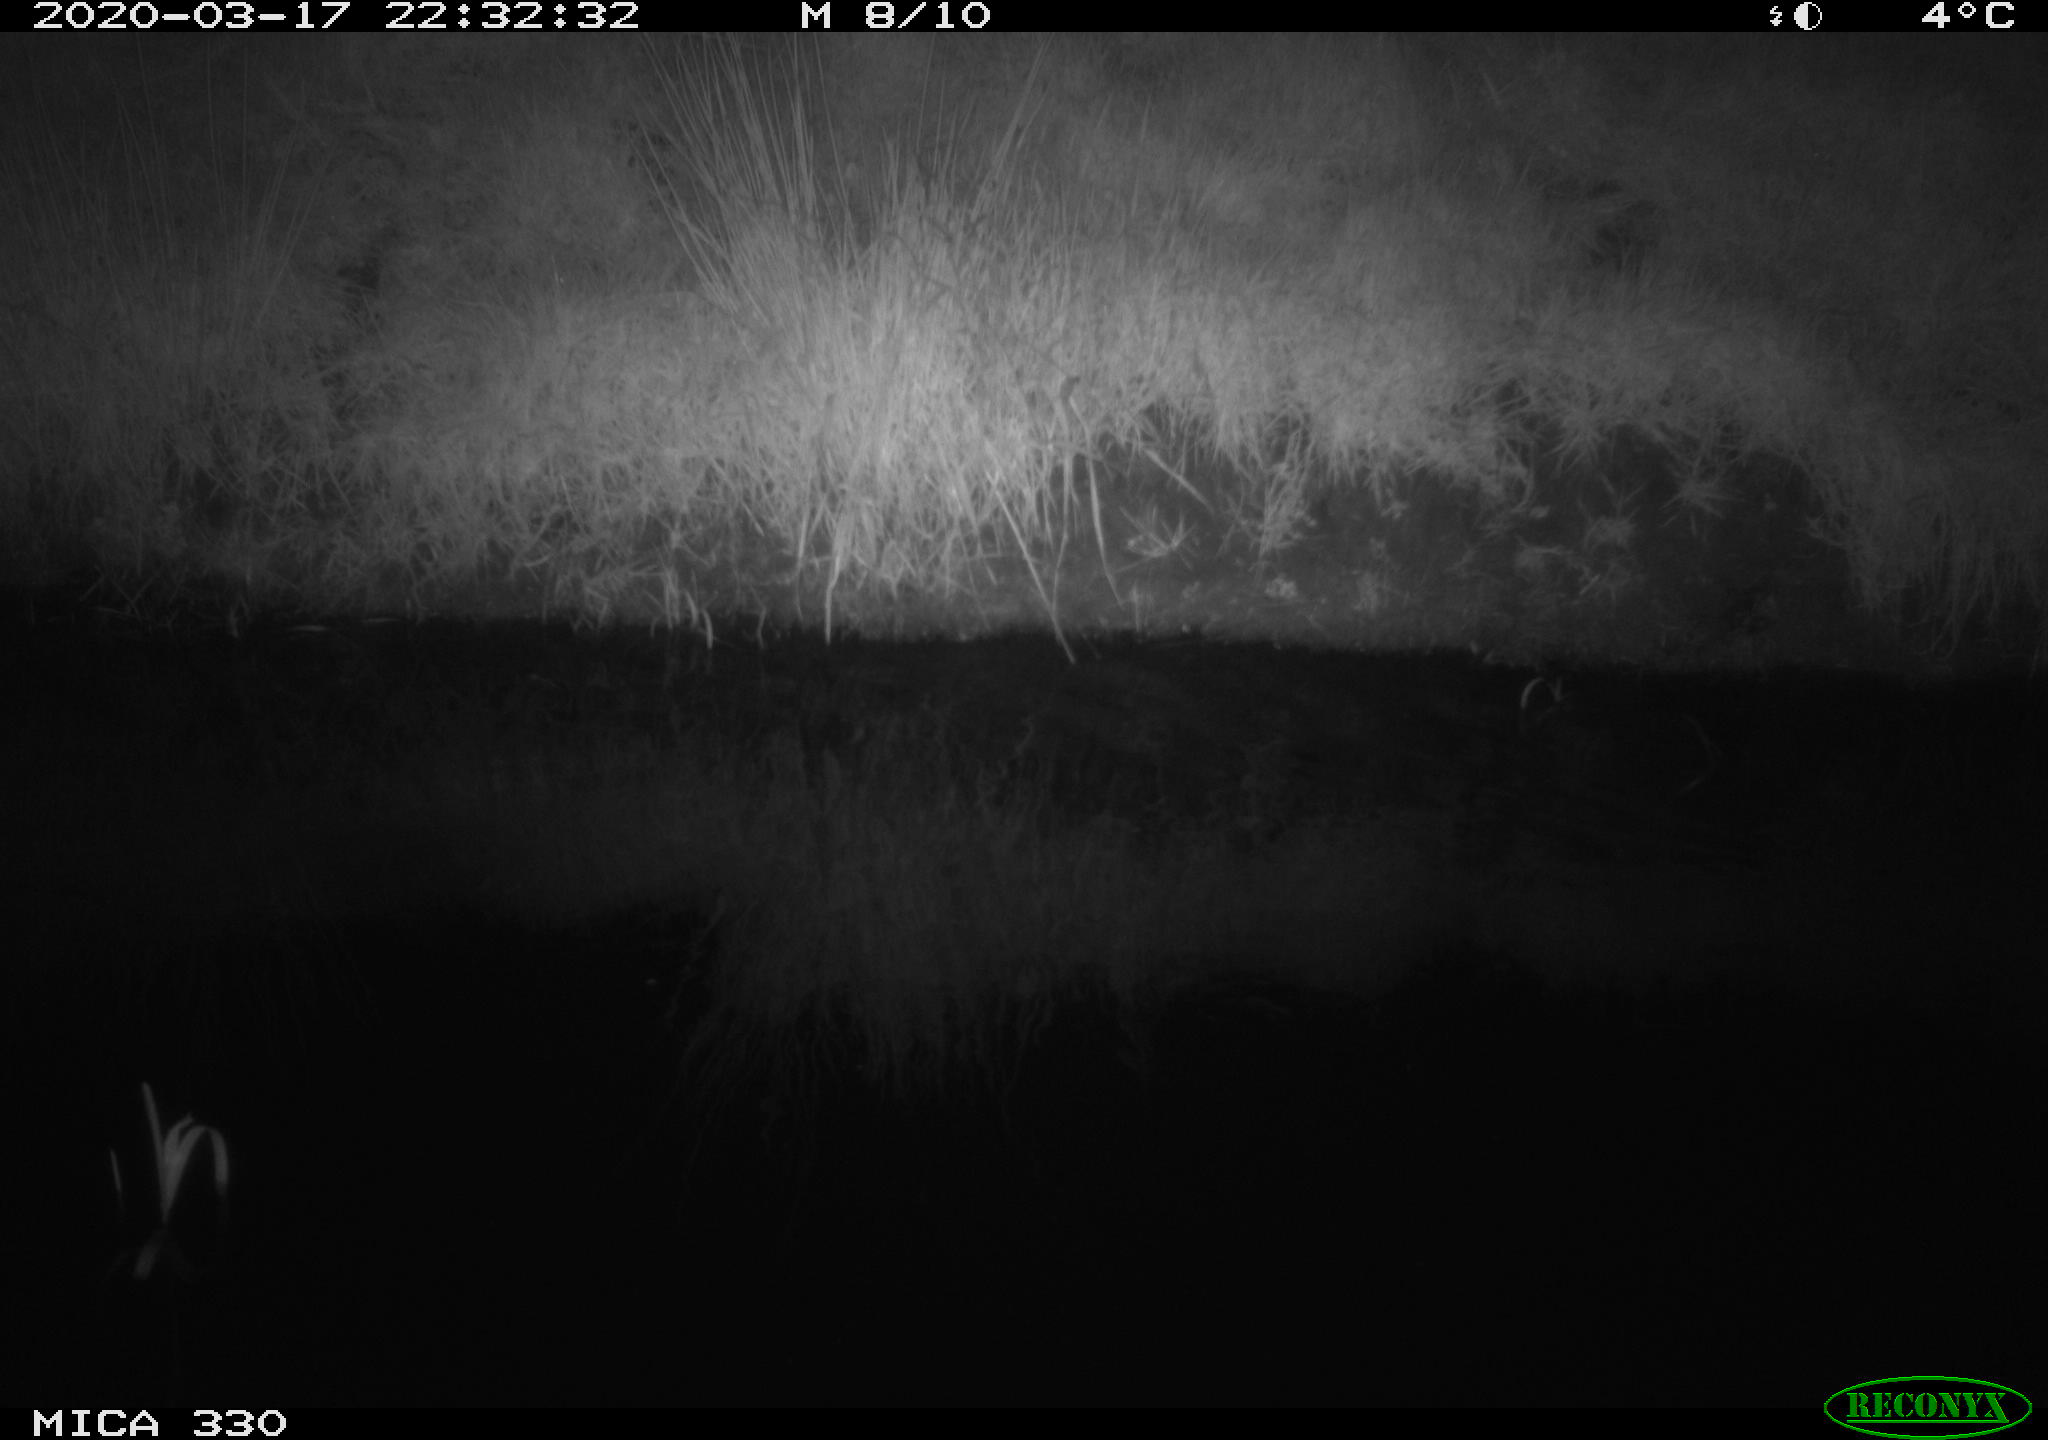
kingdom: Animalia
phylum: Chordata
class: Aves
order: Anseriformes
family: Anatidae
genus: Anas
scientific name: Anas platyrhynchos
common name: Mallard
